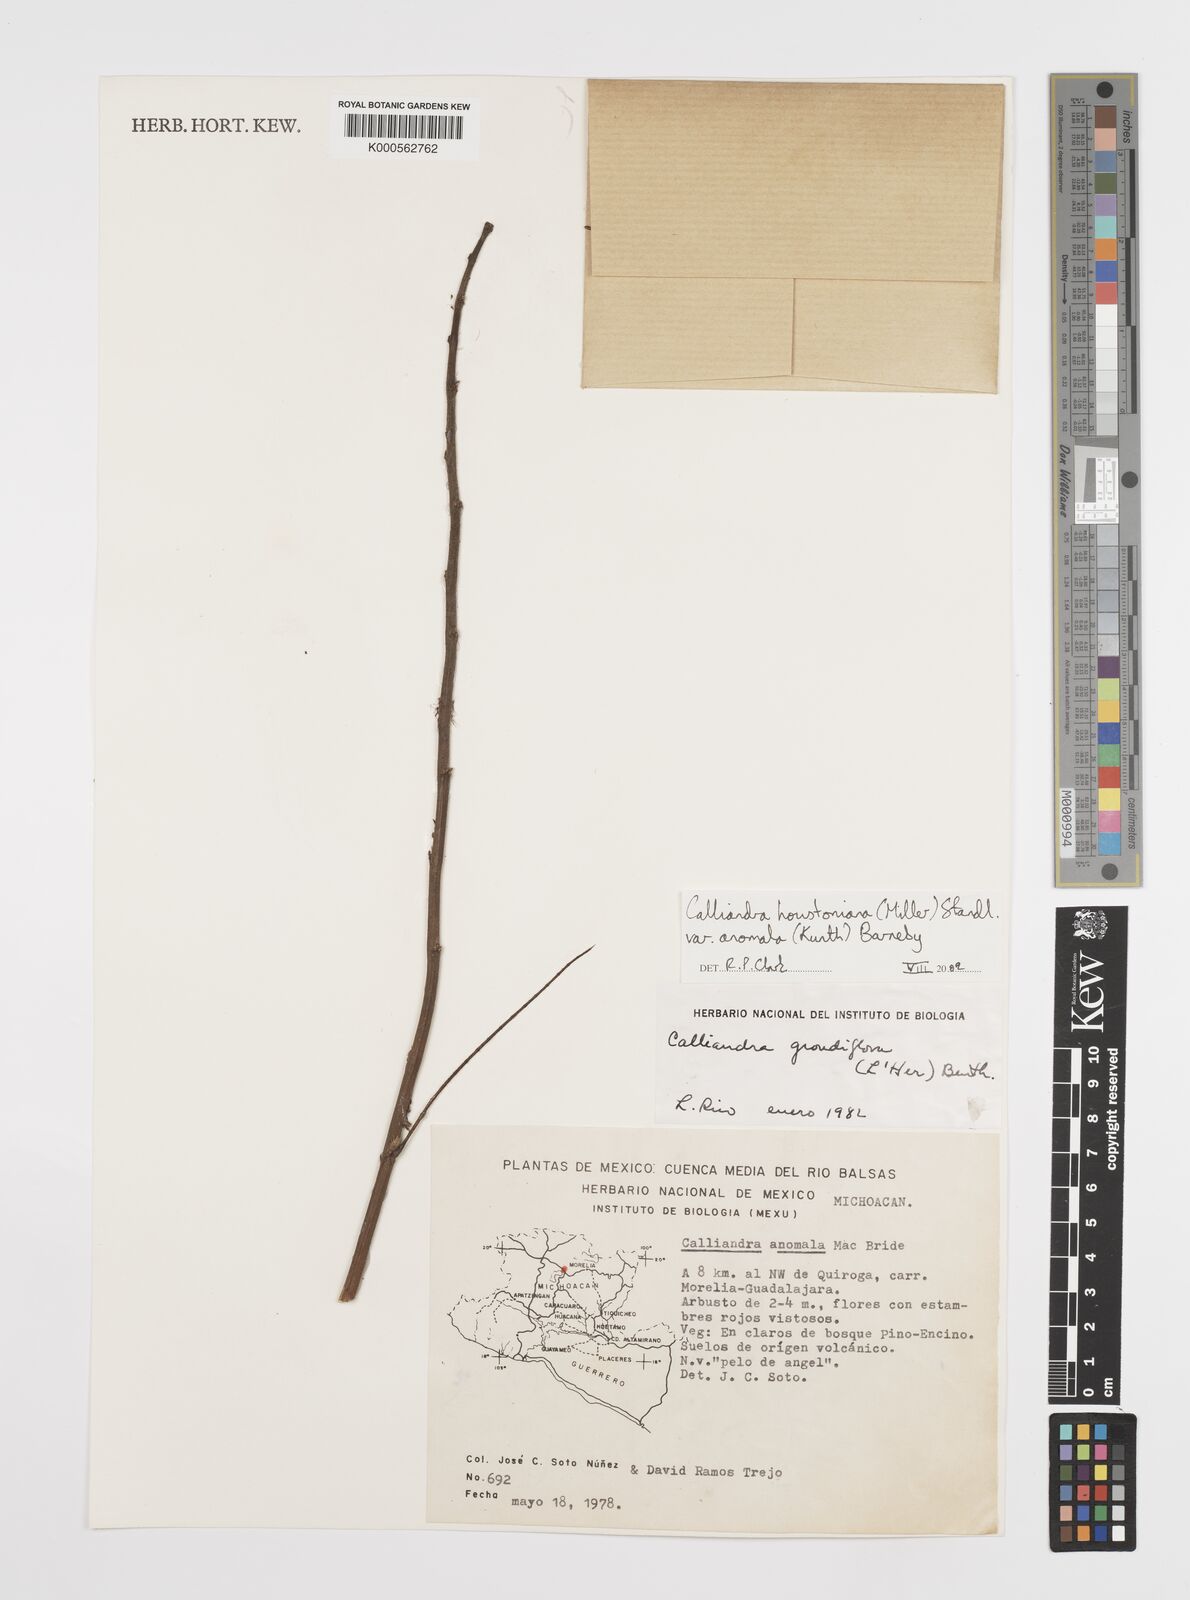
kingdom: Plantae
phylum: Tracheophyta
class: Magnoliopsida
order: Fabales
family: Fabaceae
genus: Calliandra
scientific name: Calliandra houstoniana
